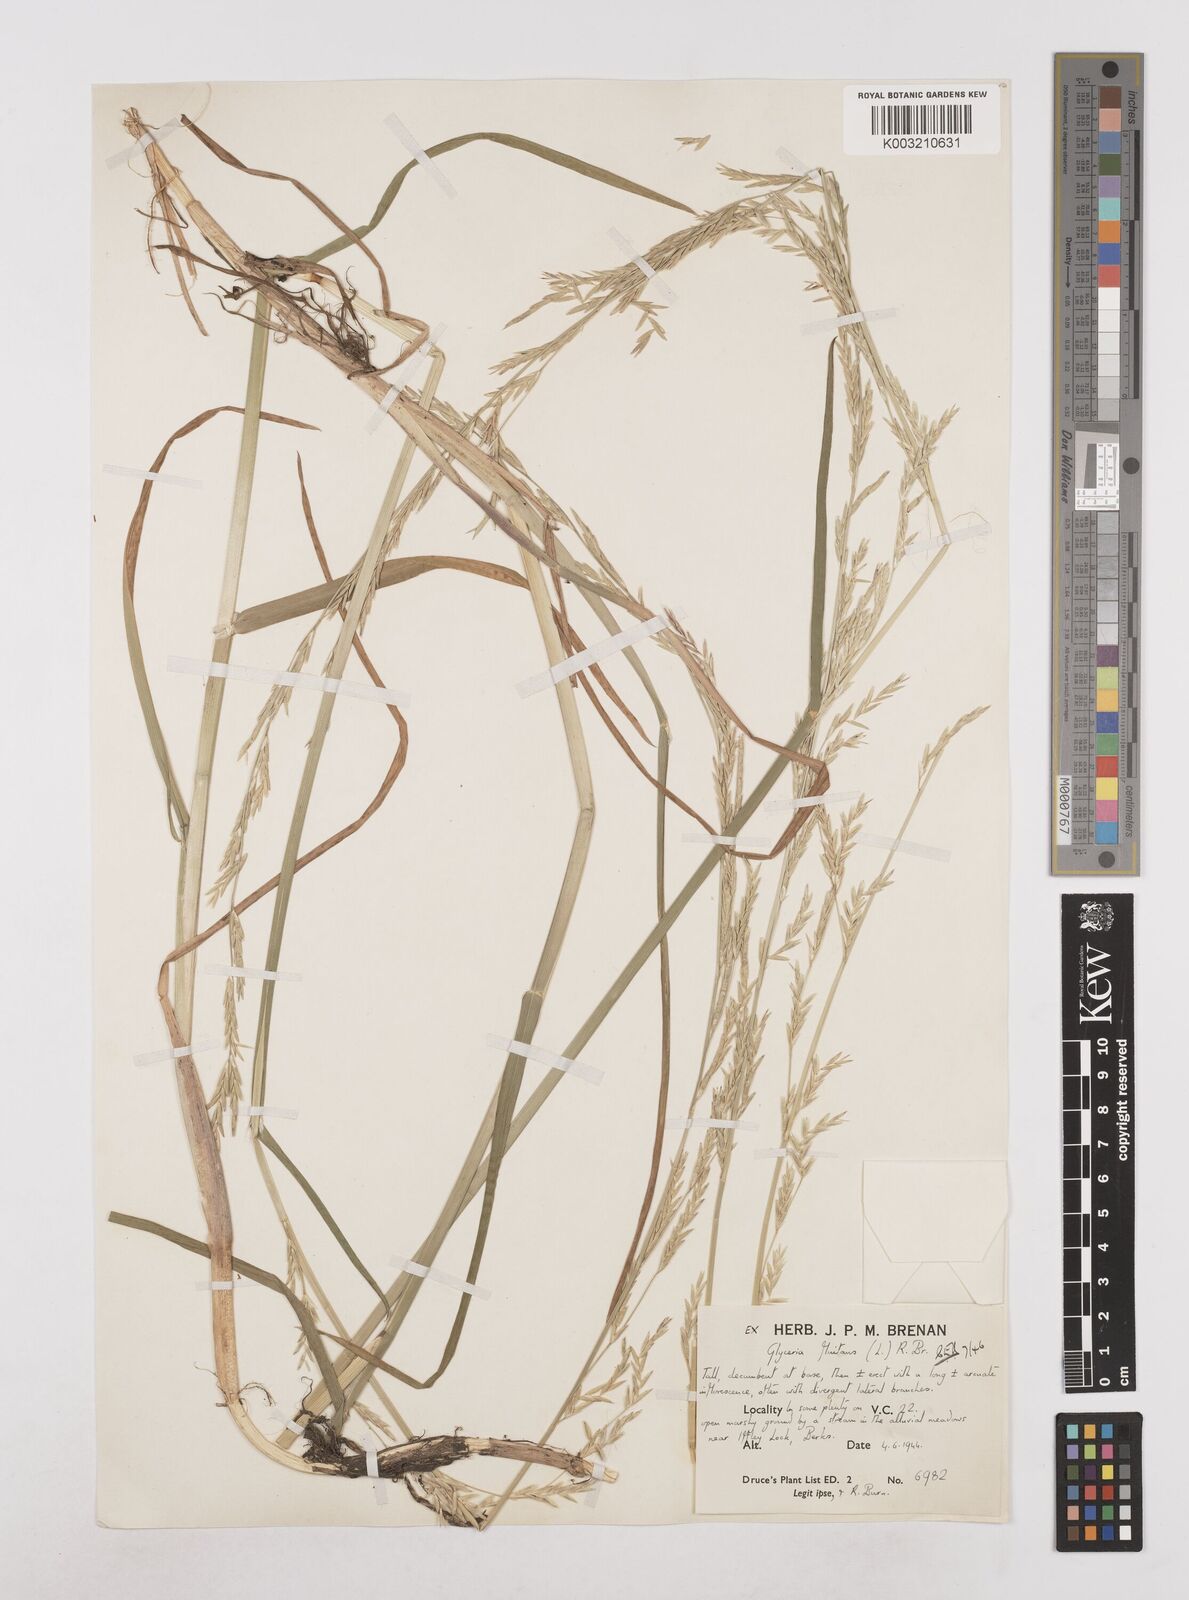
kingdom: Plantae
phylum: Tracheophyta
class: Liliopsida
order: Poales
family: Poaceae
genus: Glyceria
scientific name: Glyceria fluitans
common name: Floating sweet-grass
